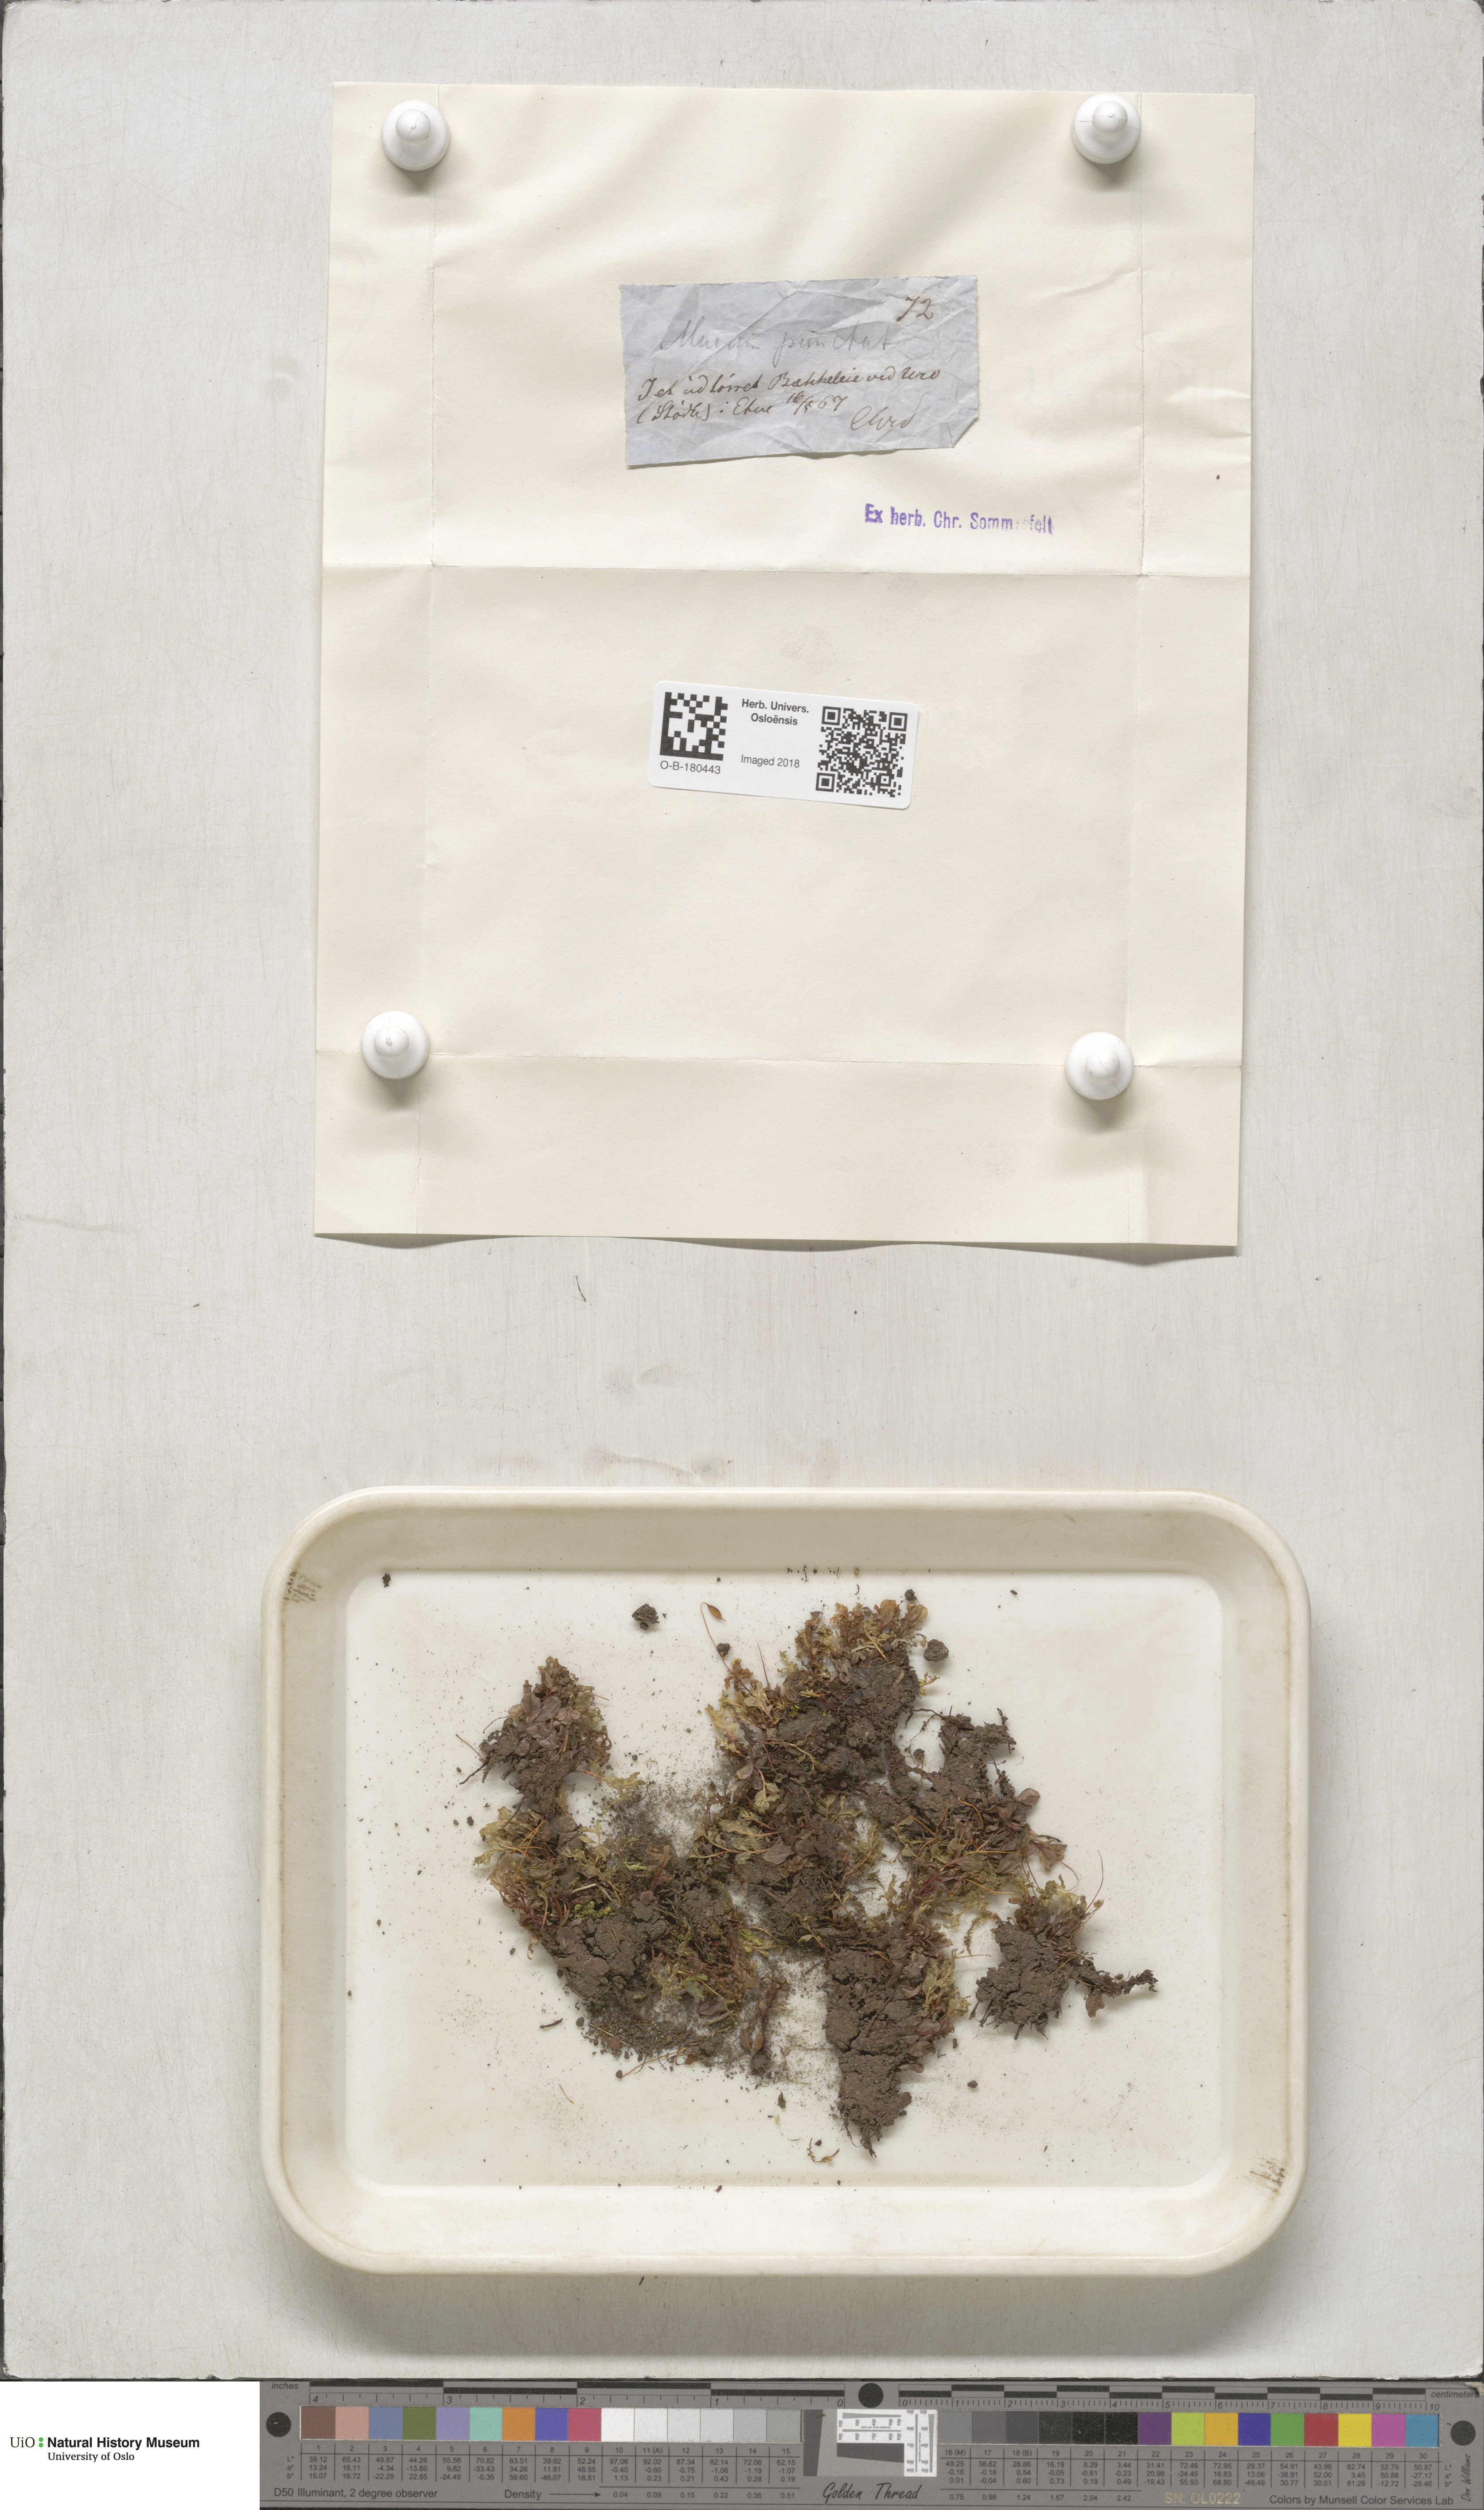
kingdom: Plantae
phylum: Bryophyta
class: Bryopsida
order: Bryales
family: Mniaceae
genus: Rhizomnium
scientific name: Rhizomnium punctatum
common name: Dotted leafy moss
